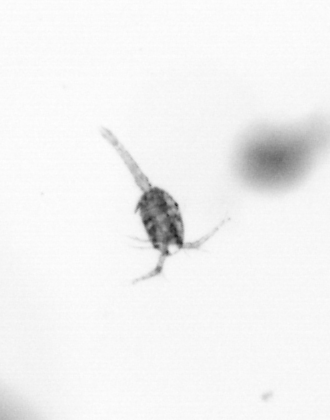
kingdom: Animalia
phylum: Arthropoda
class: Copepoda
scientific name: Copepoda
